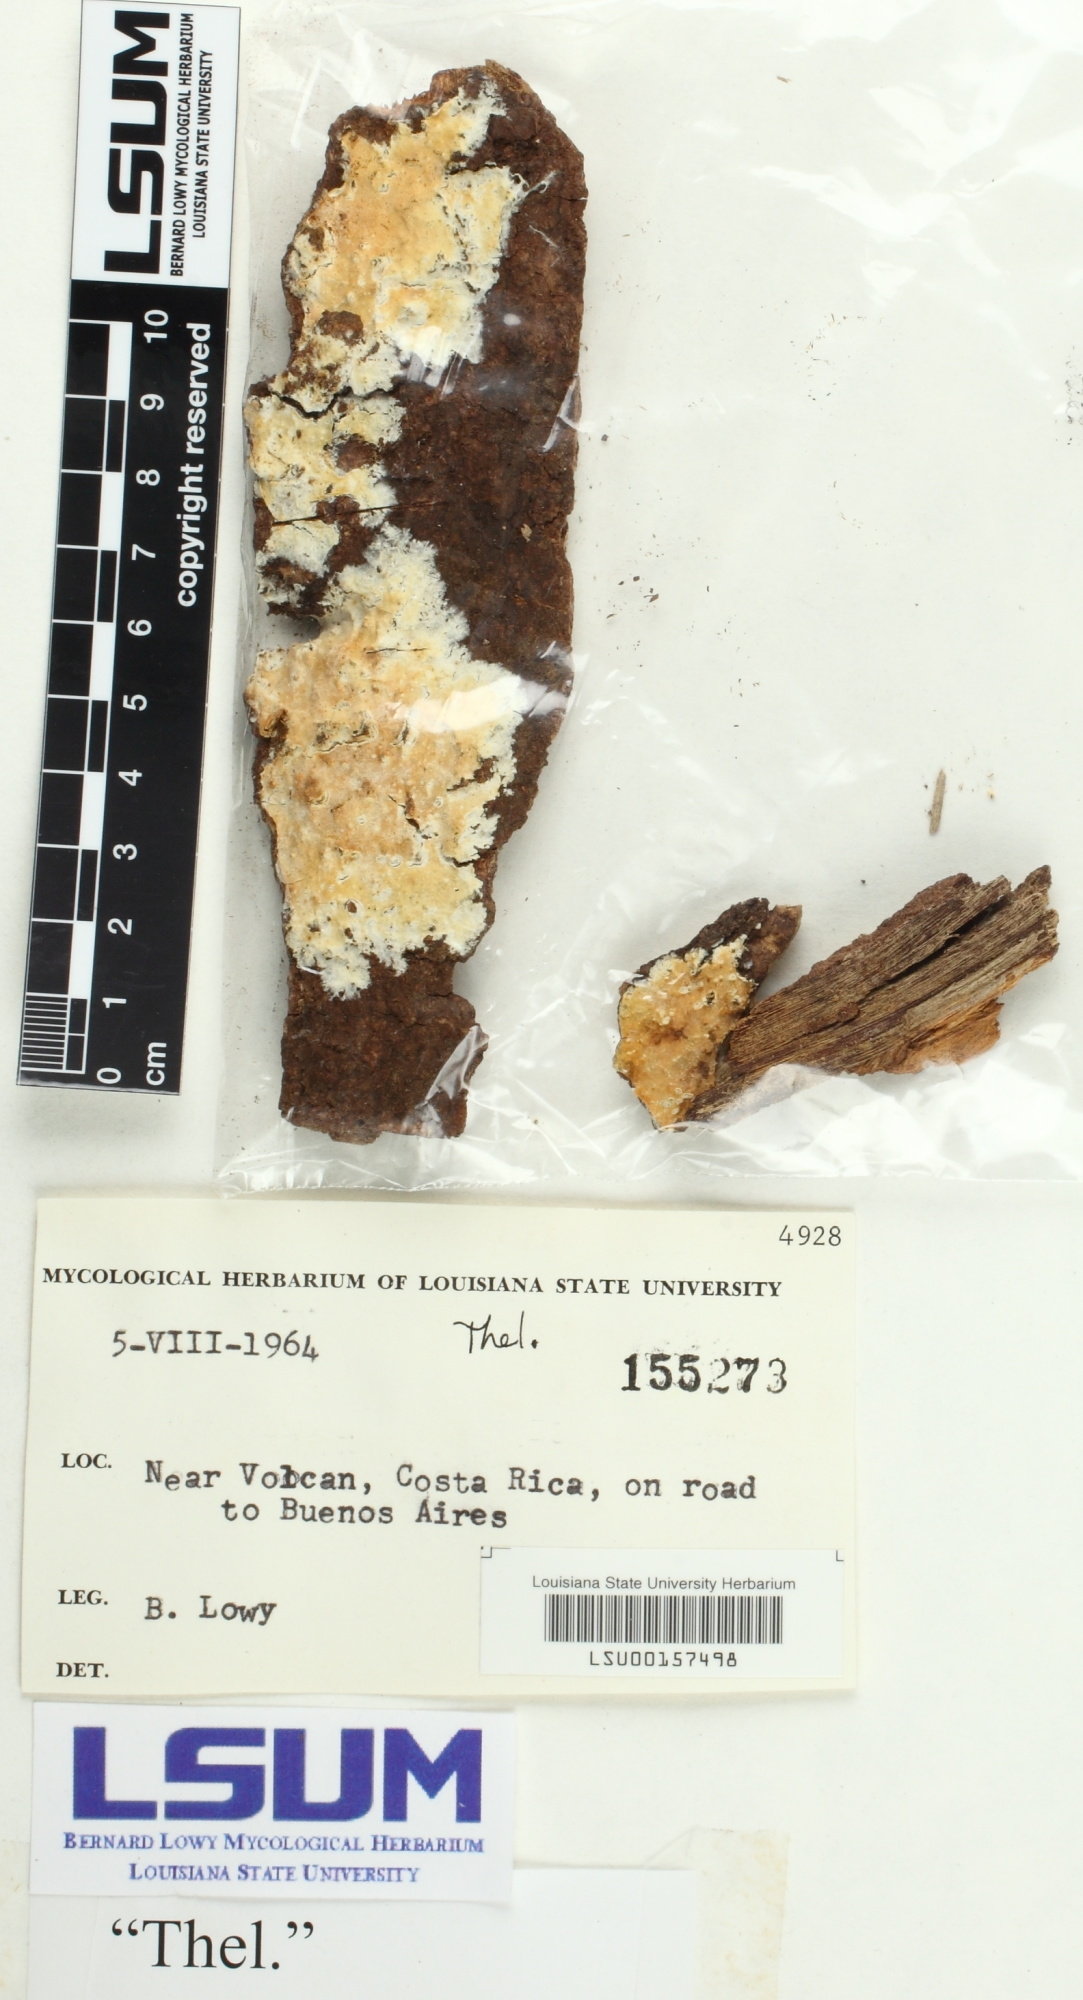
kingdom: Fungi
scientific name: Fungi
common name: Fungi
